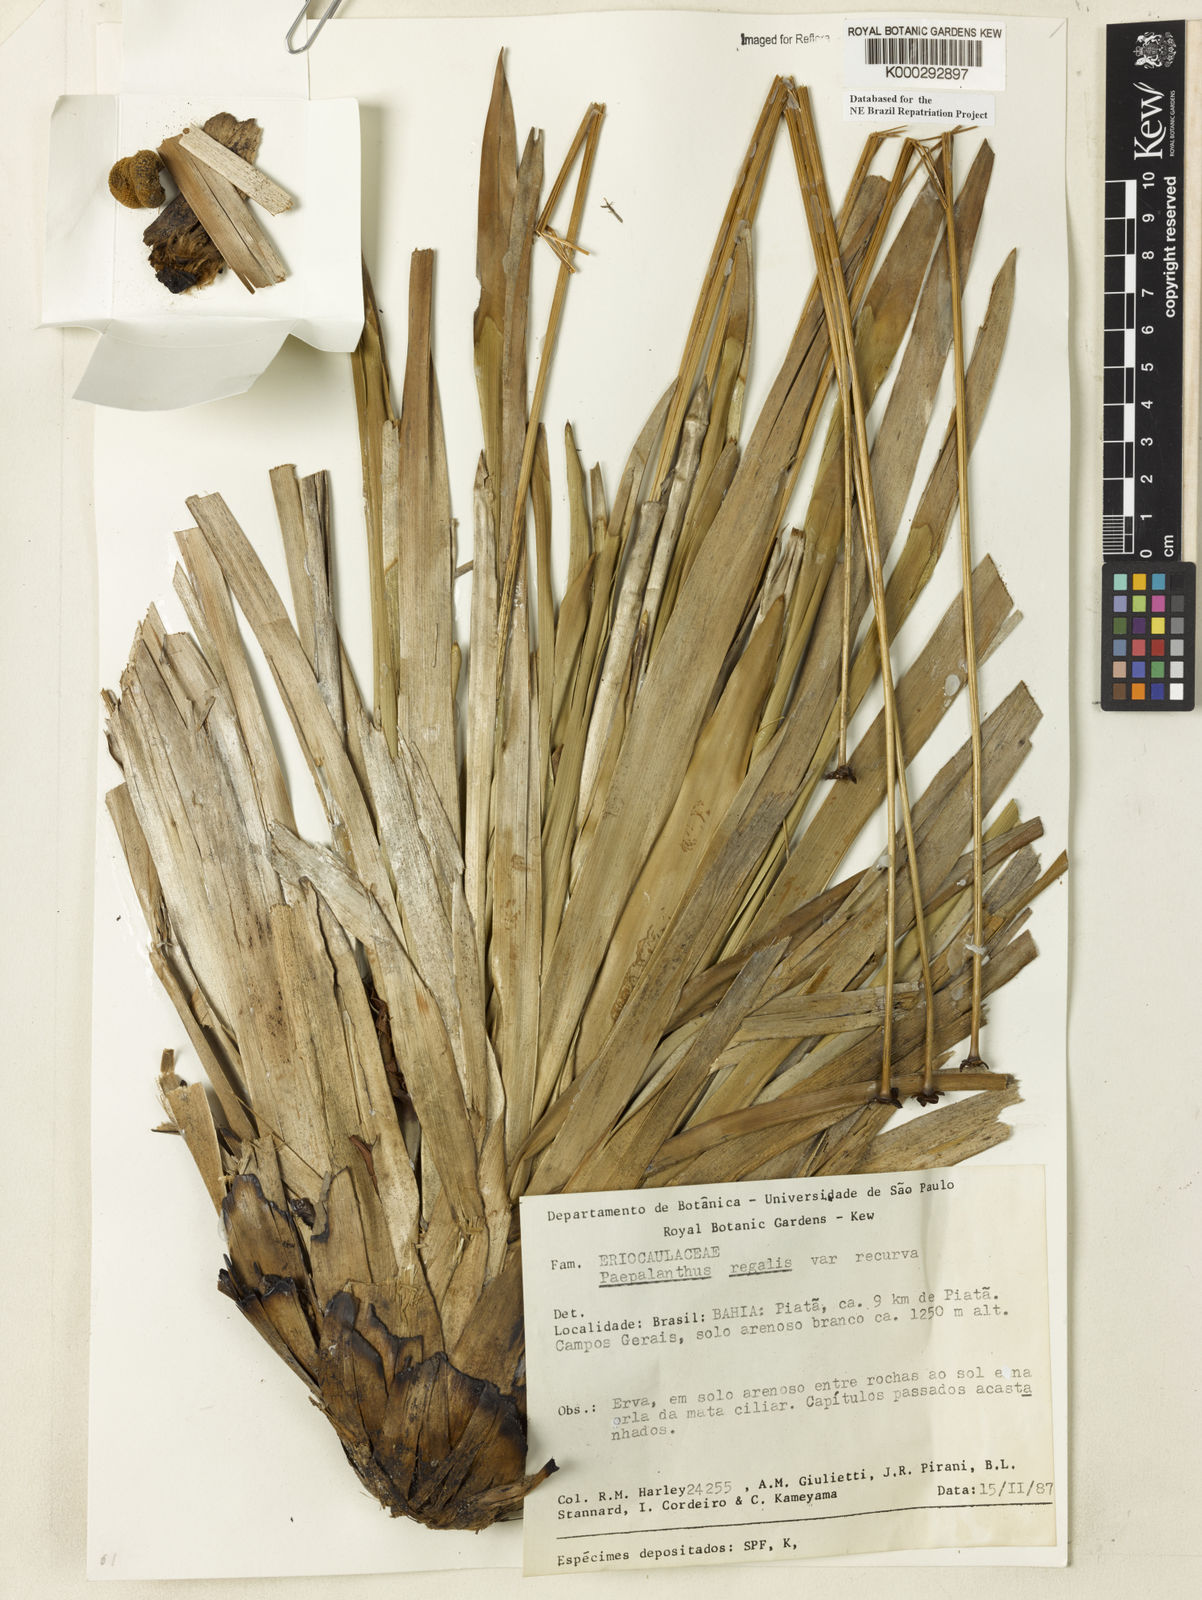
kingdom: Plantae
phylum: Tracheophyta
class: Liliopsida
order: Poales
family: Eriocaulaceae
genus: Paepalanthus
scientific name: Paepalanthus
